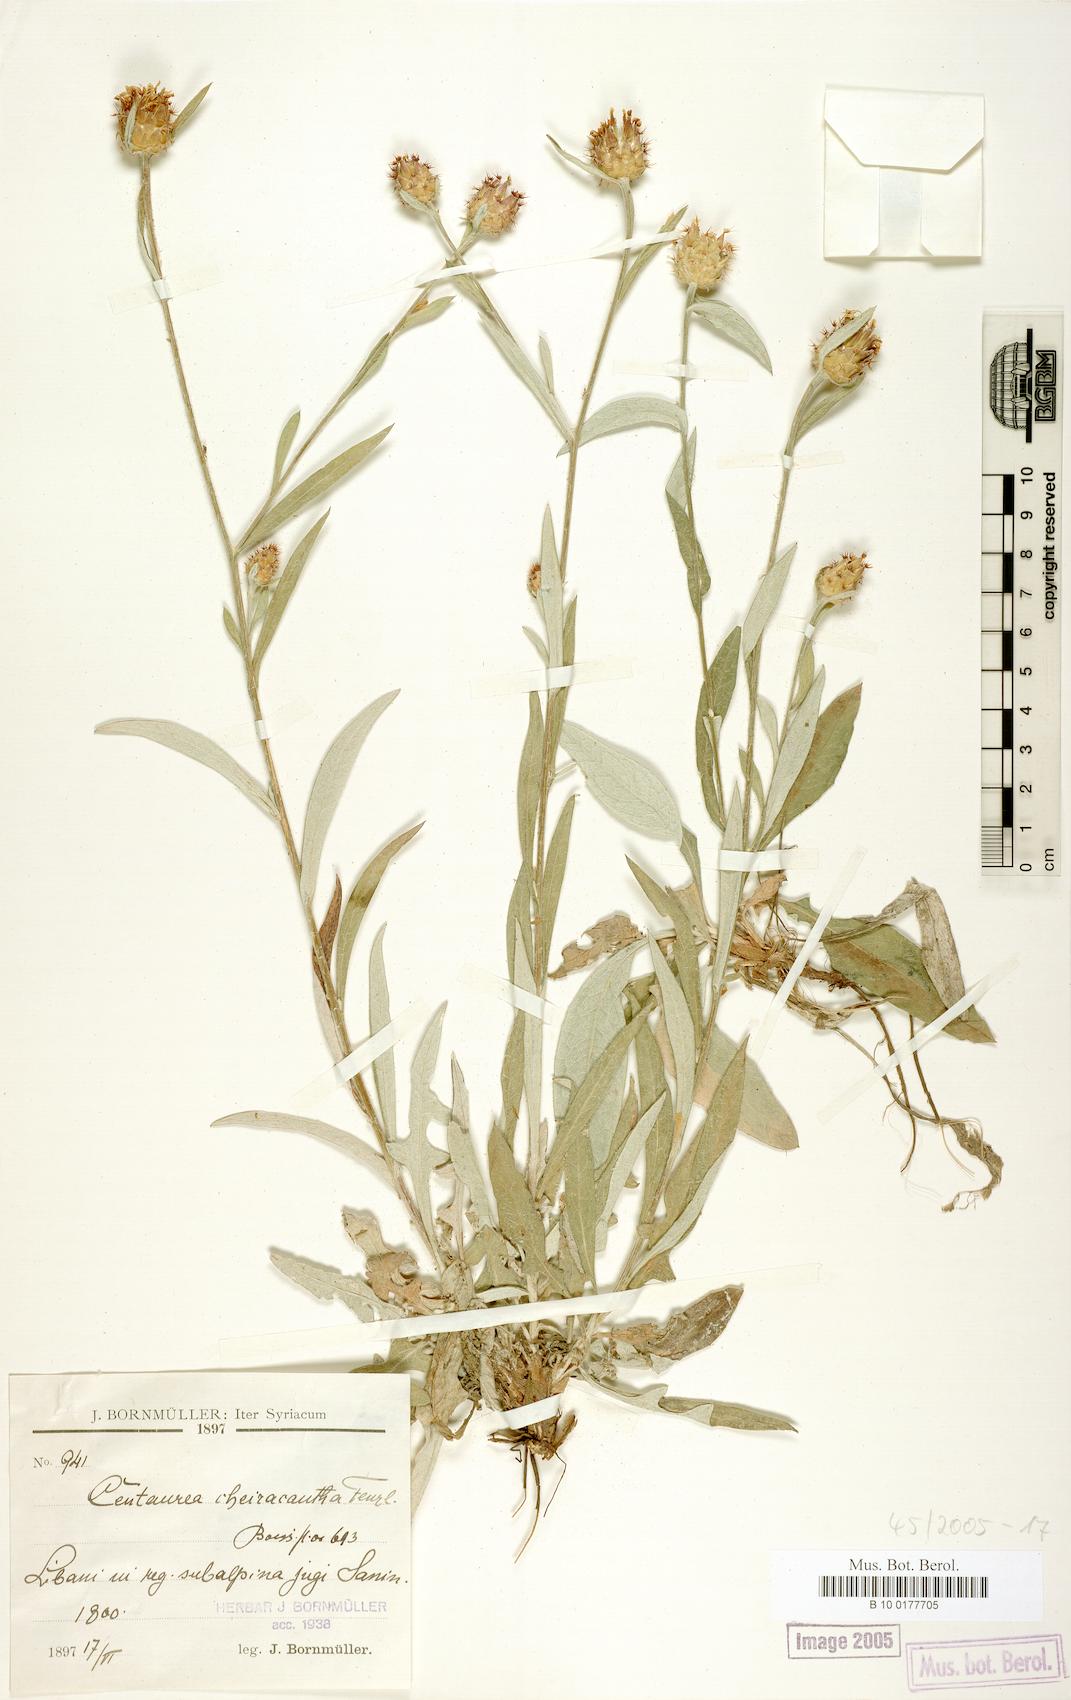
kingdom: Plantae
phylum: Tracheophyta
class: Magnoliopsida
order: Asterales
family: Asteraceae
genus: Centaurea
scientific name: Centaurea cheirolopha
